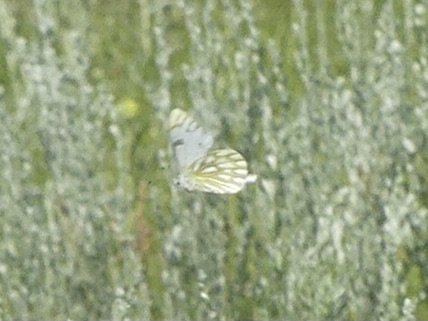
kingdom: Animalia
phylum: Arthropoda
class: Insecta
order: Lepidoptera
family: Pieridae
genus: Pontia
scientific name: Pontia occidentalis
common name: Western White
